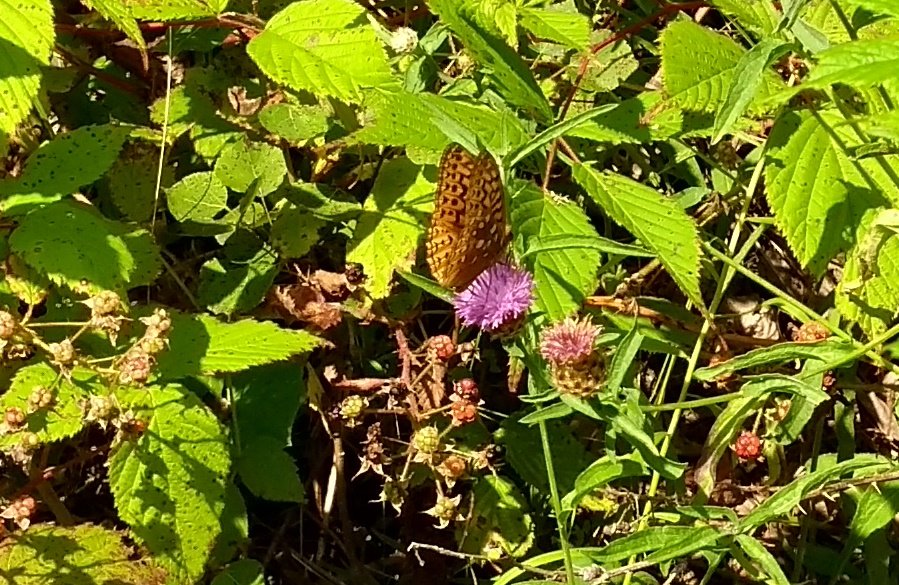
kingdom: Animalia
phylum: Arthropoda
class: Insecta
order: Lepidoptera
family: Nymphalidae
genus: Speyeria
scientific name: Speyeria cybele
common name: Great Spangled Fritillary
